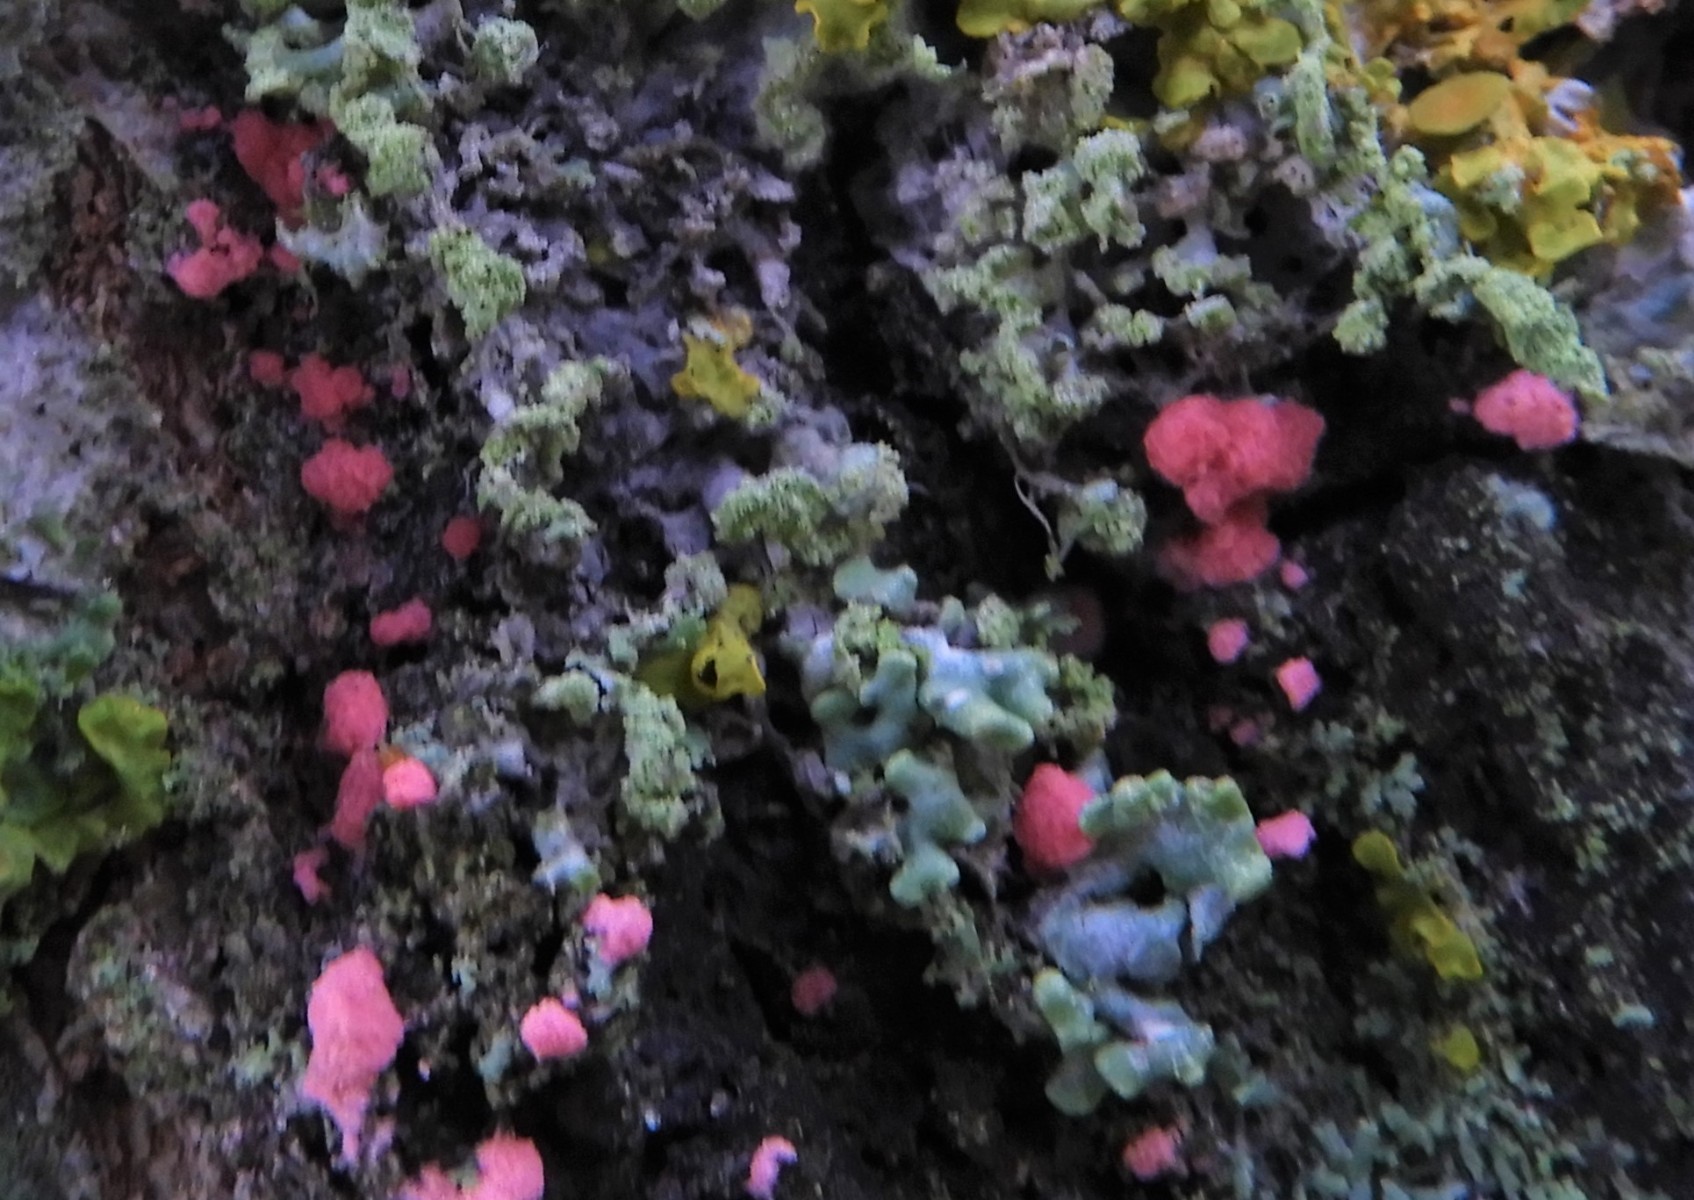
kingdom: Fungi
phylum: Ascomycota
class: Sordariomycetes
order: Hypocreales
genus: Illosporiopsis
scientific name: Illosporiopsis christiansenii
